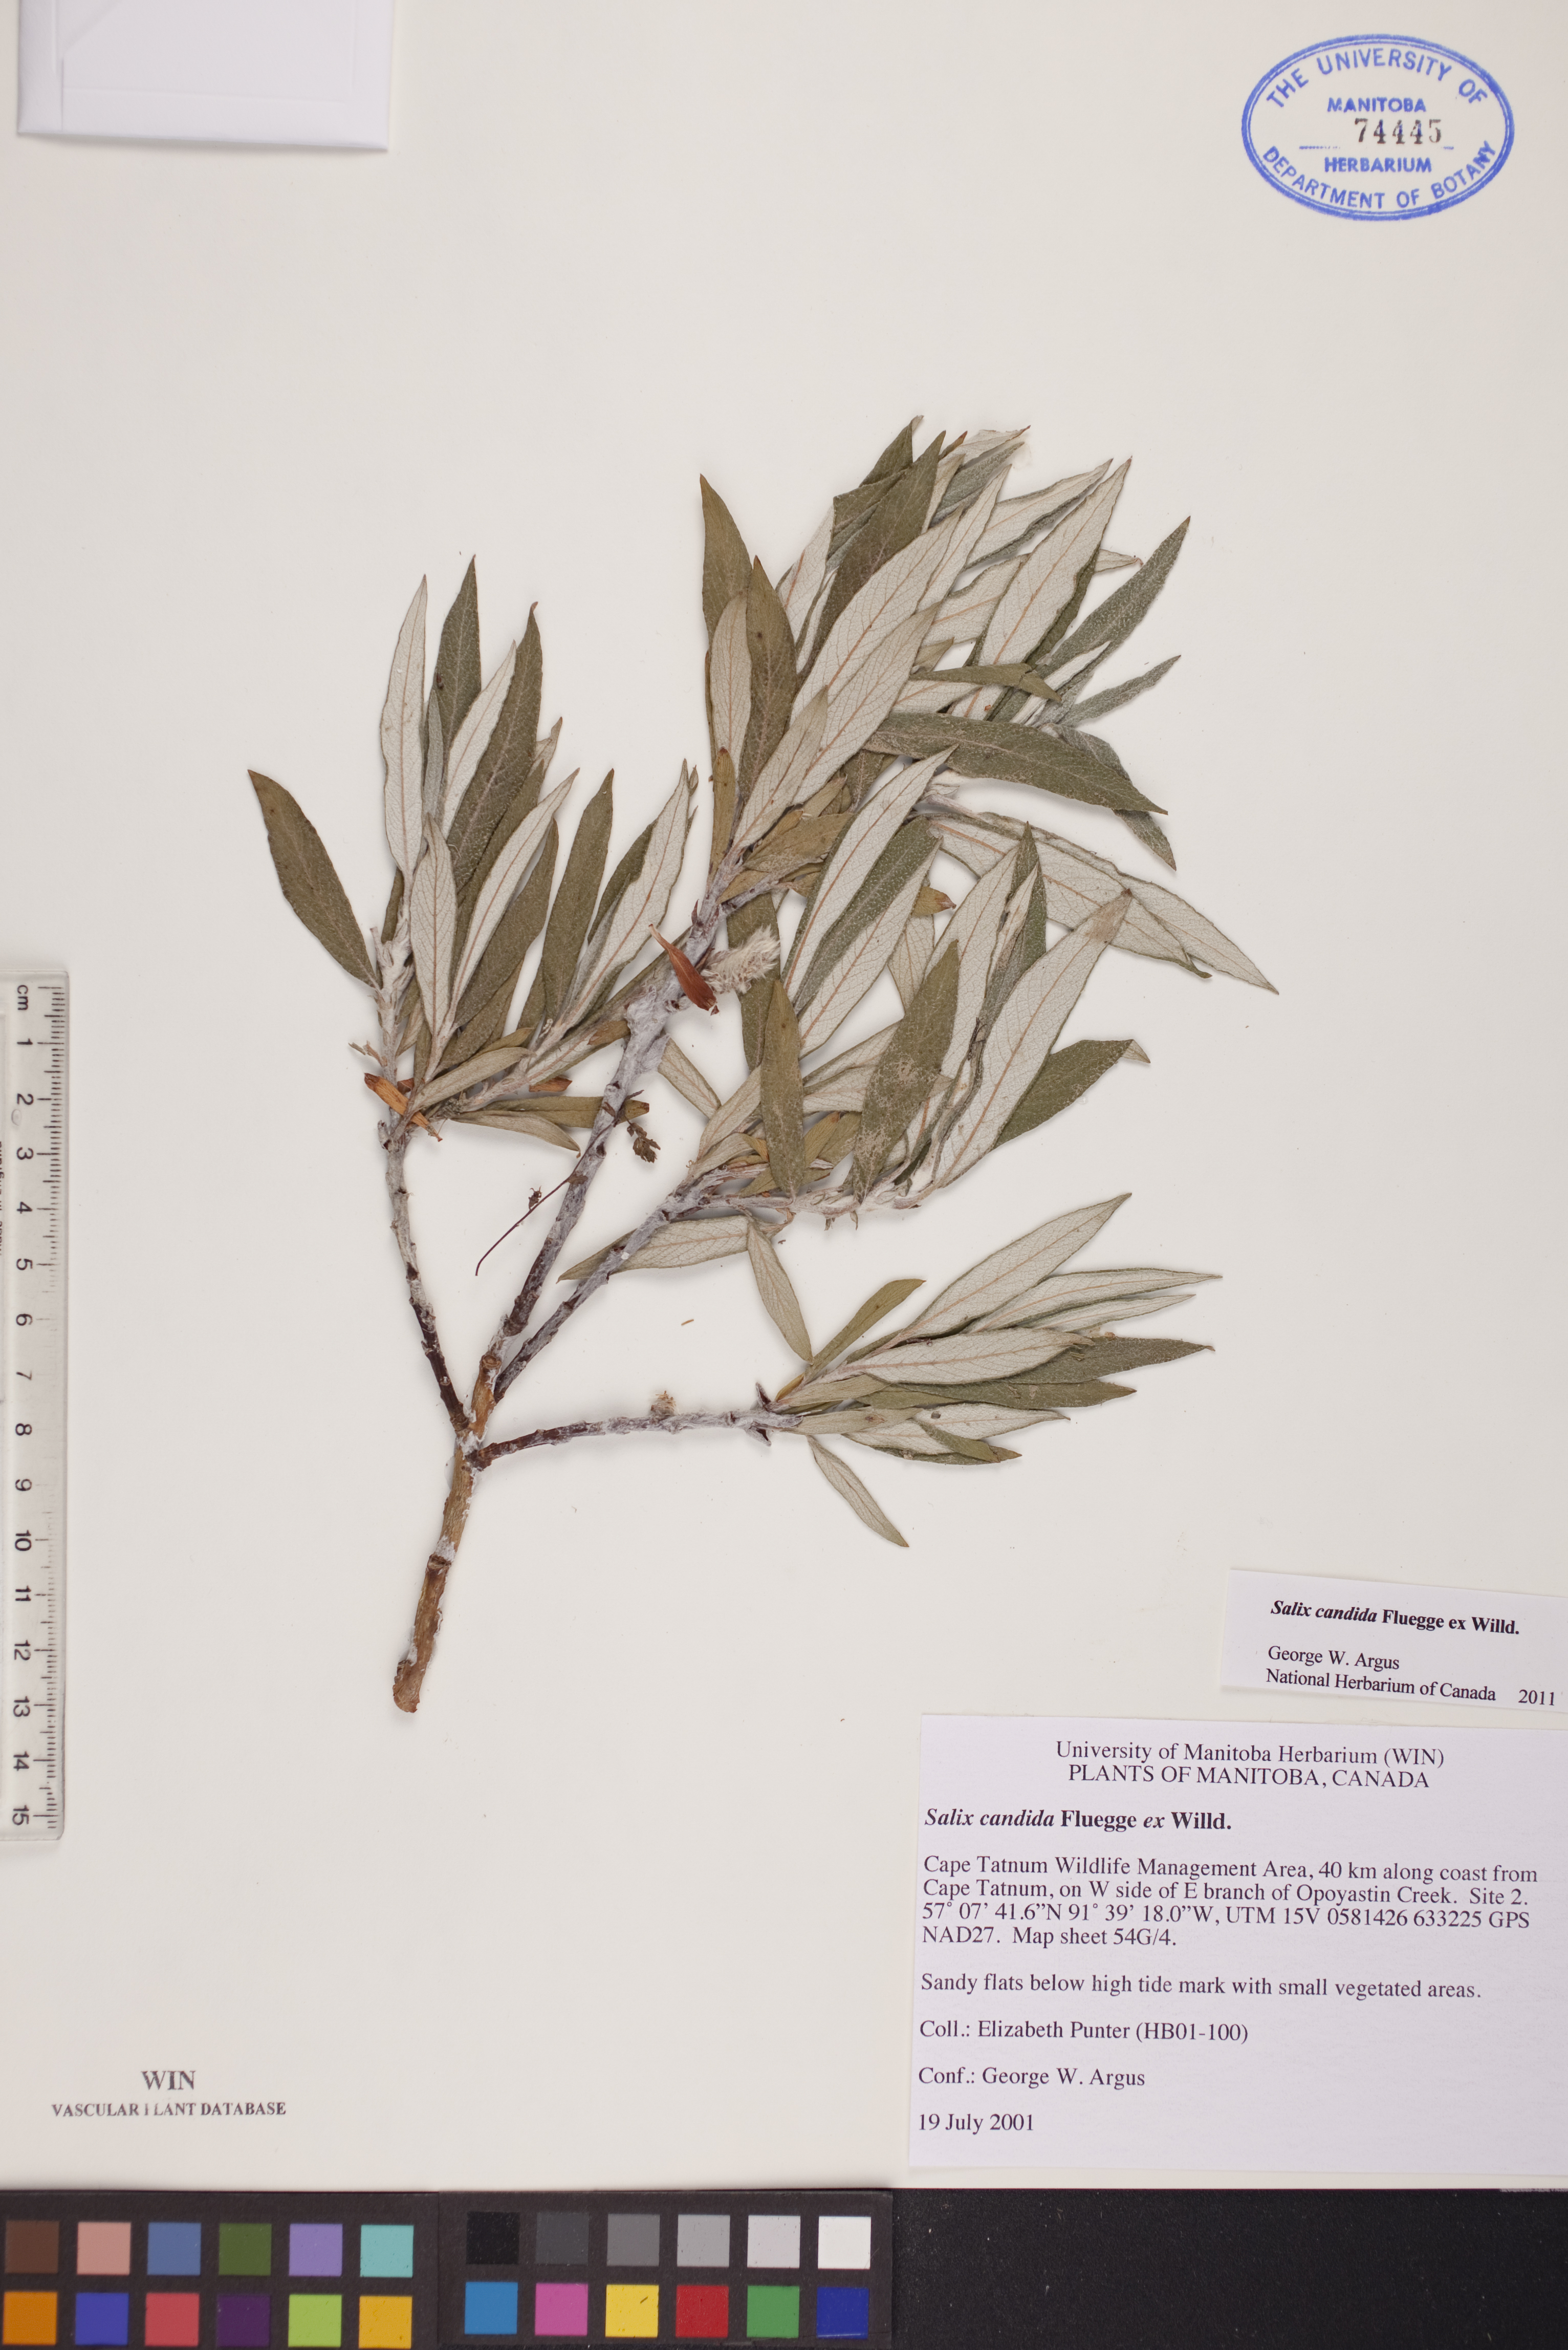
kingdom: Plantae
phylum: Tracheophyta
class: Magnoliopsida
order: Malpighiales
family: Salicaceae
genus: Salix
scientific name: Salix candida
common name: Hoary willow
